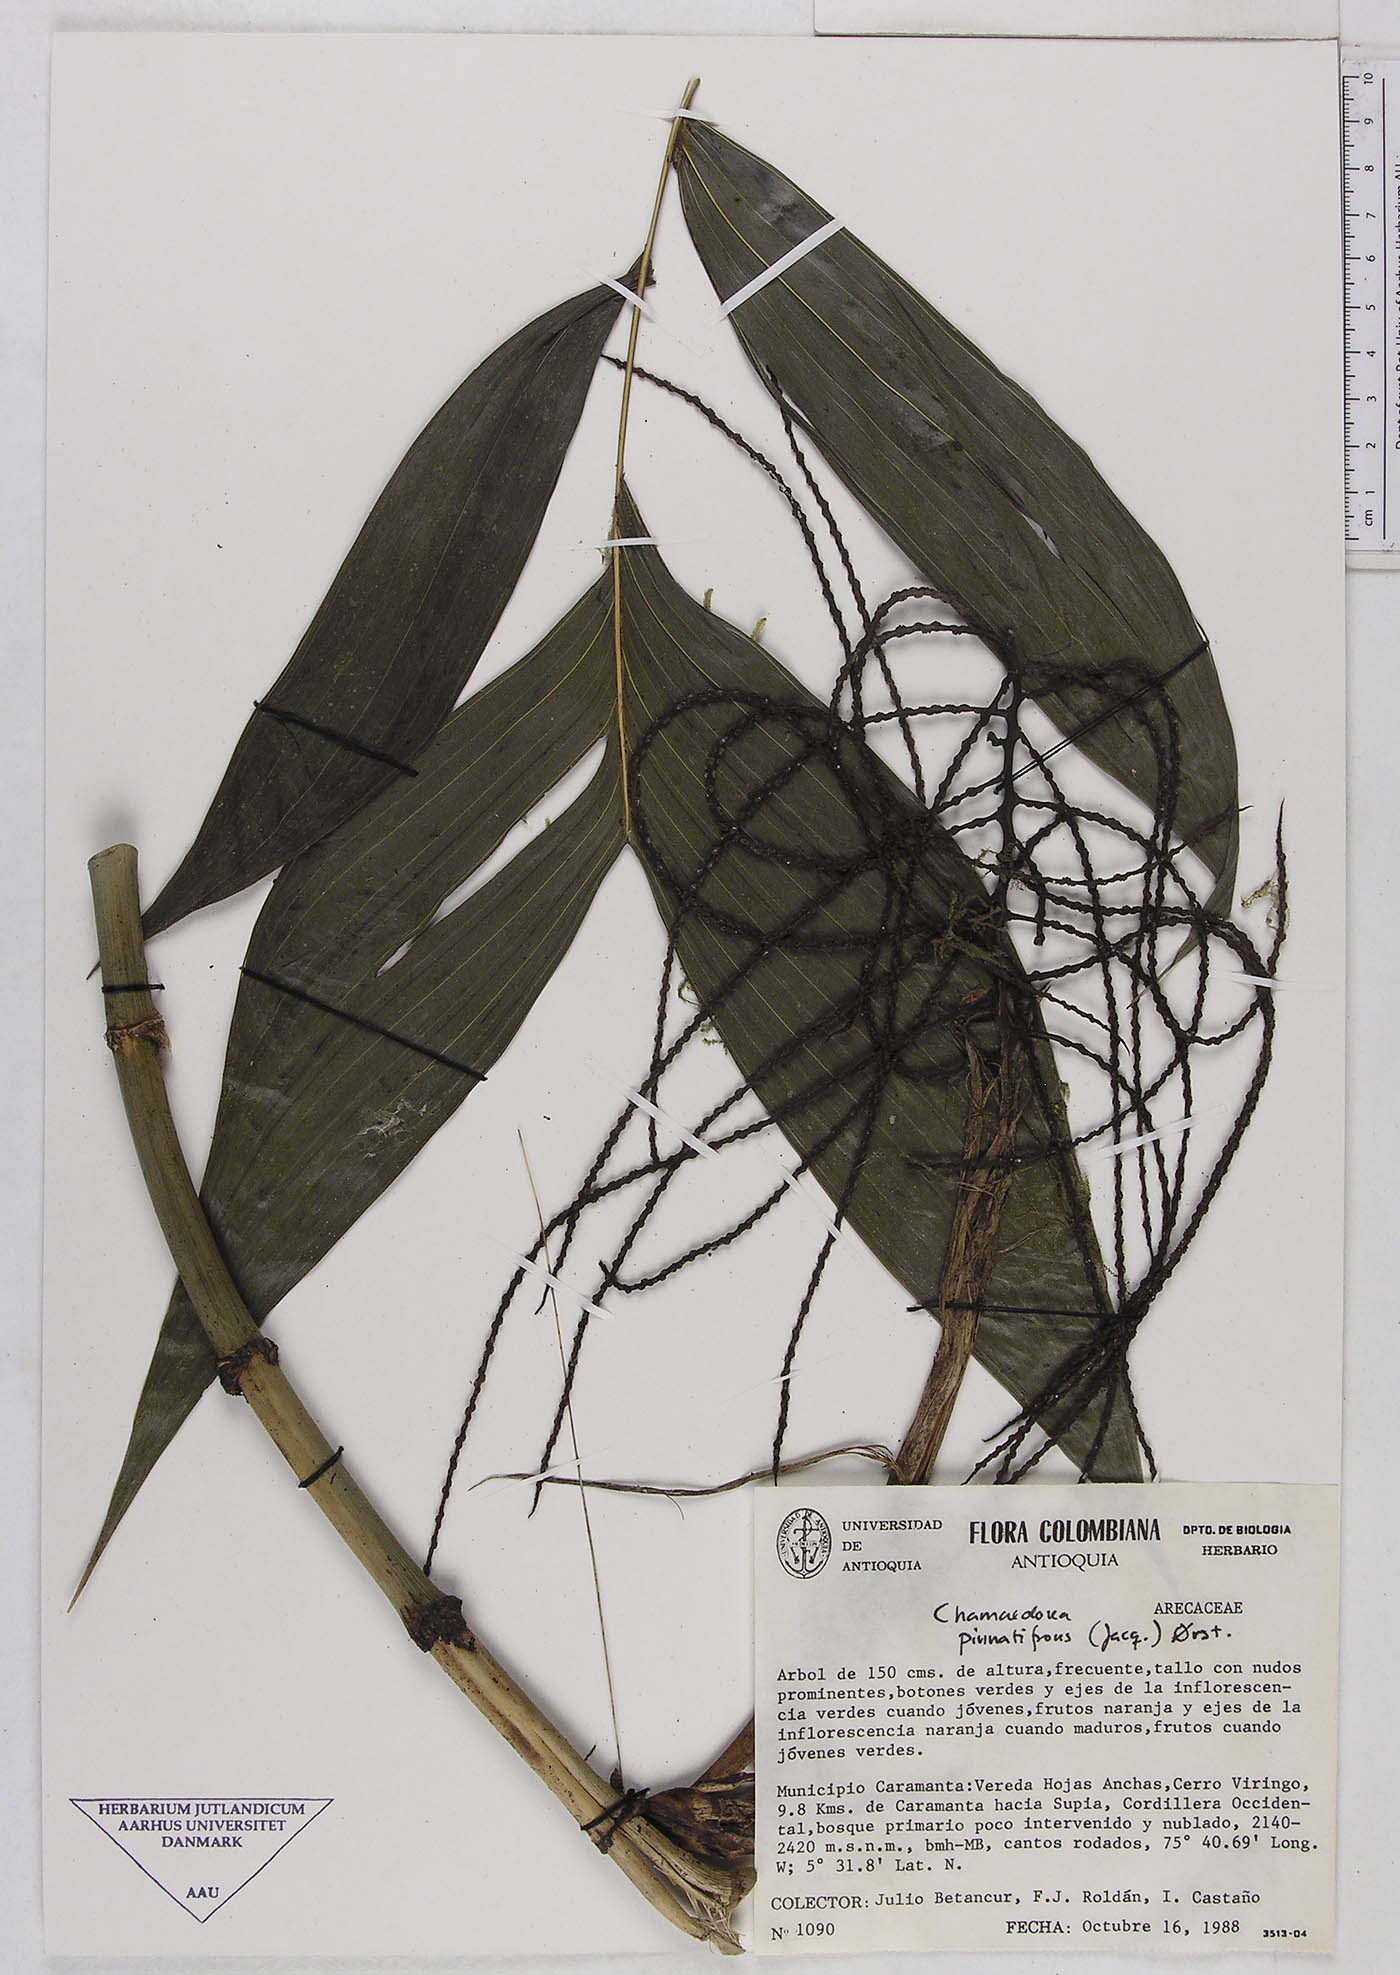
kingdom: Plantae
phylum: Tracheophyta
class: Liliopsida
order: Arecales
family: Arecaceae
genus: Chamaedorea
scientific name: Chamaedorea pinnatifrons
